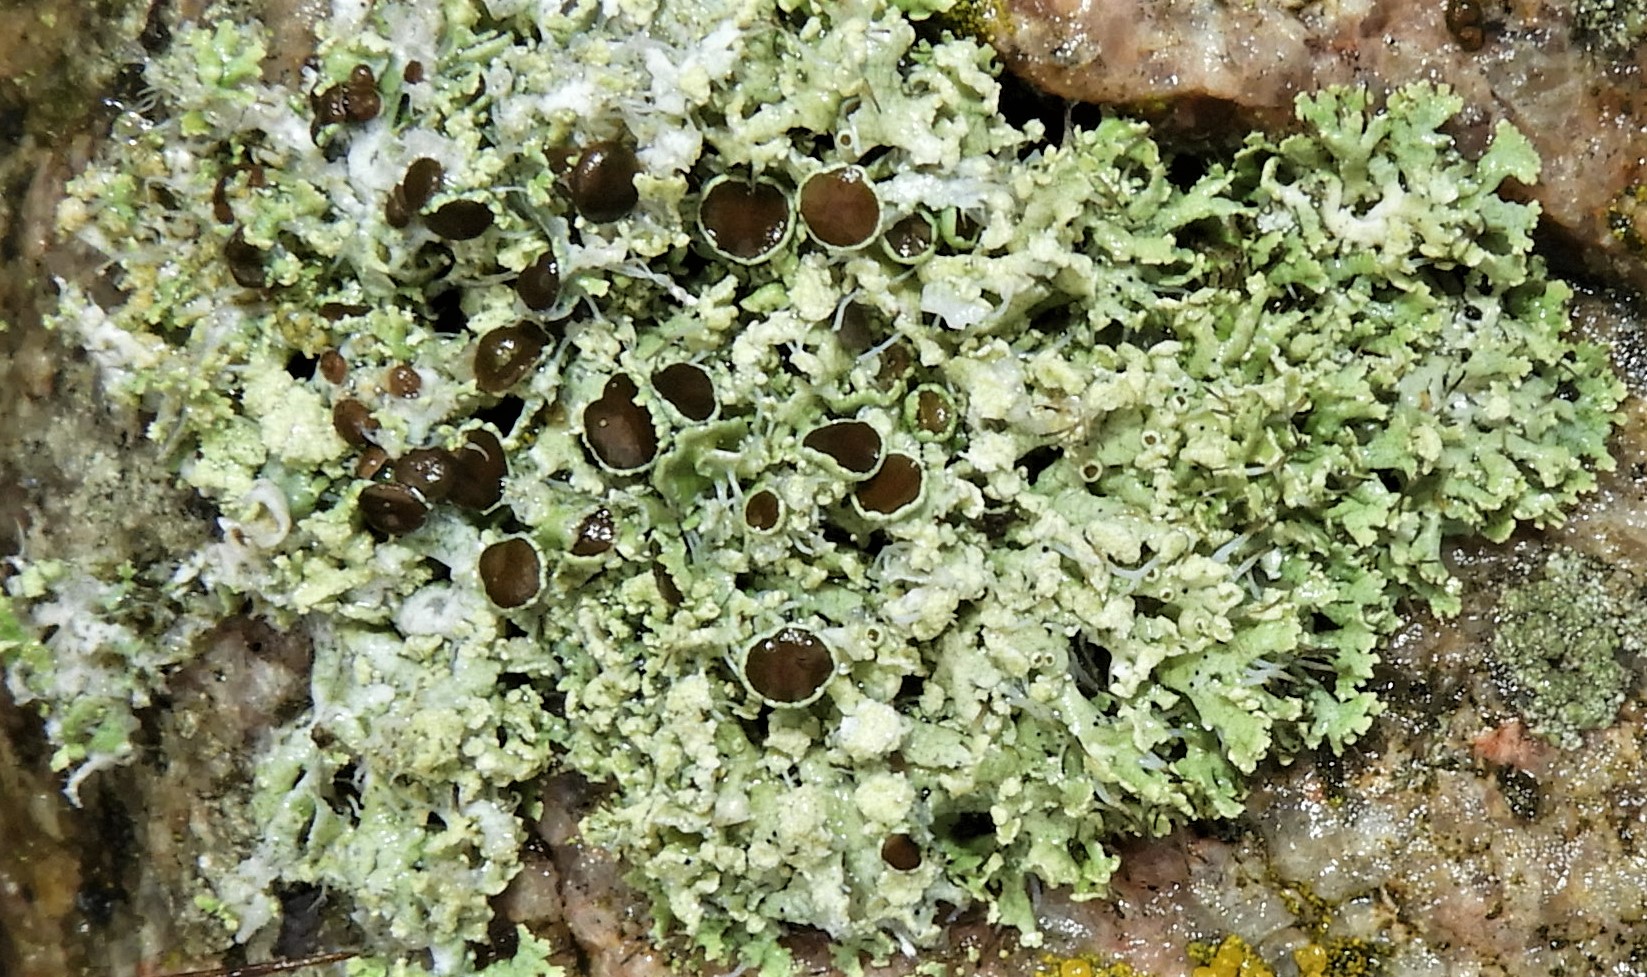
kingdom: Fungi
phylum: Ascomycota
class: Lecanoromycetes
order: Caliciales
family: Physciaceae
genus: Physcia
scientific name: Physcia tenella
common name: spæd rosetlav
